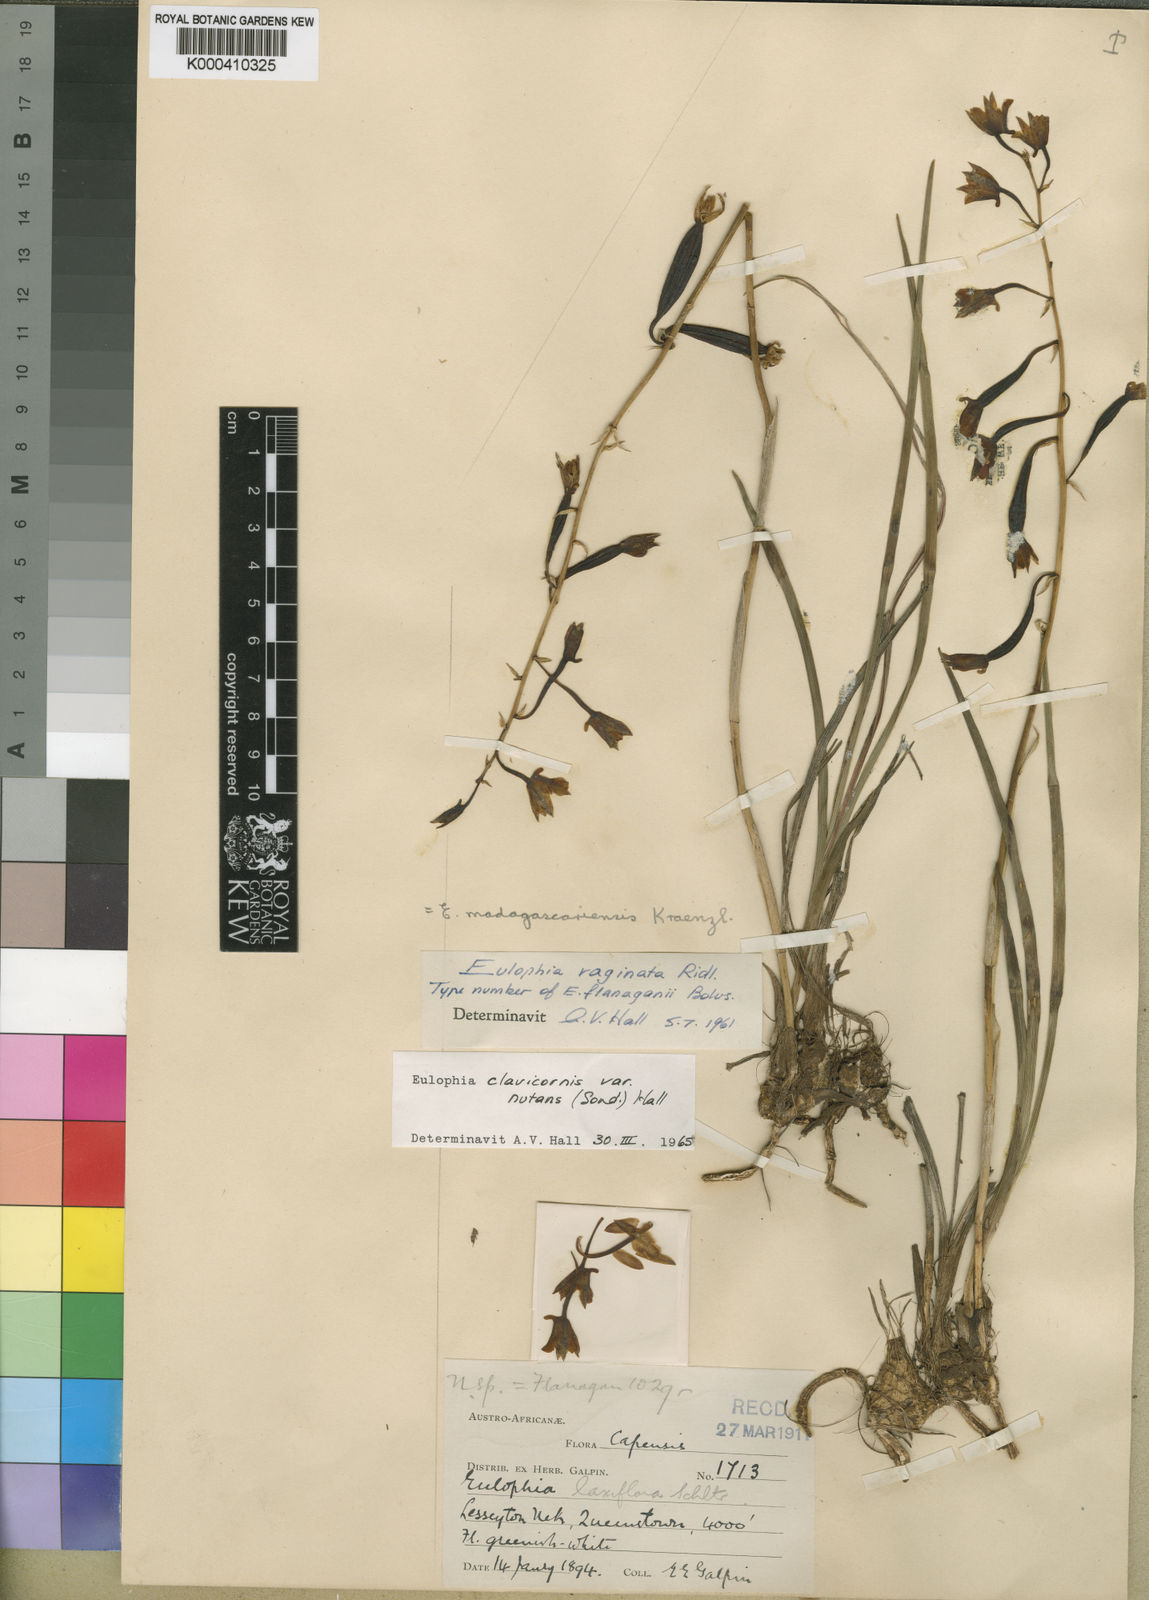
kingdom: Plantae
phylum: Tracheophyta
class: Liliopsida
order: Asparagales
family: Orchidaceae
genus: Eulophia
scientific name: Eulophia hians
